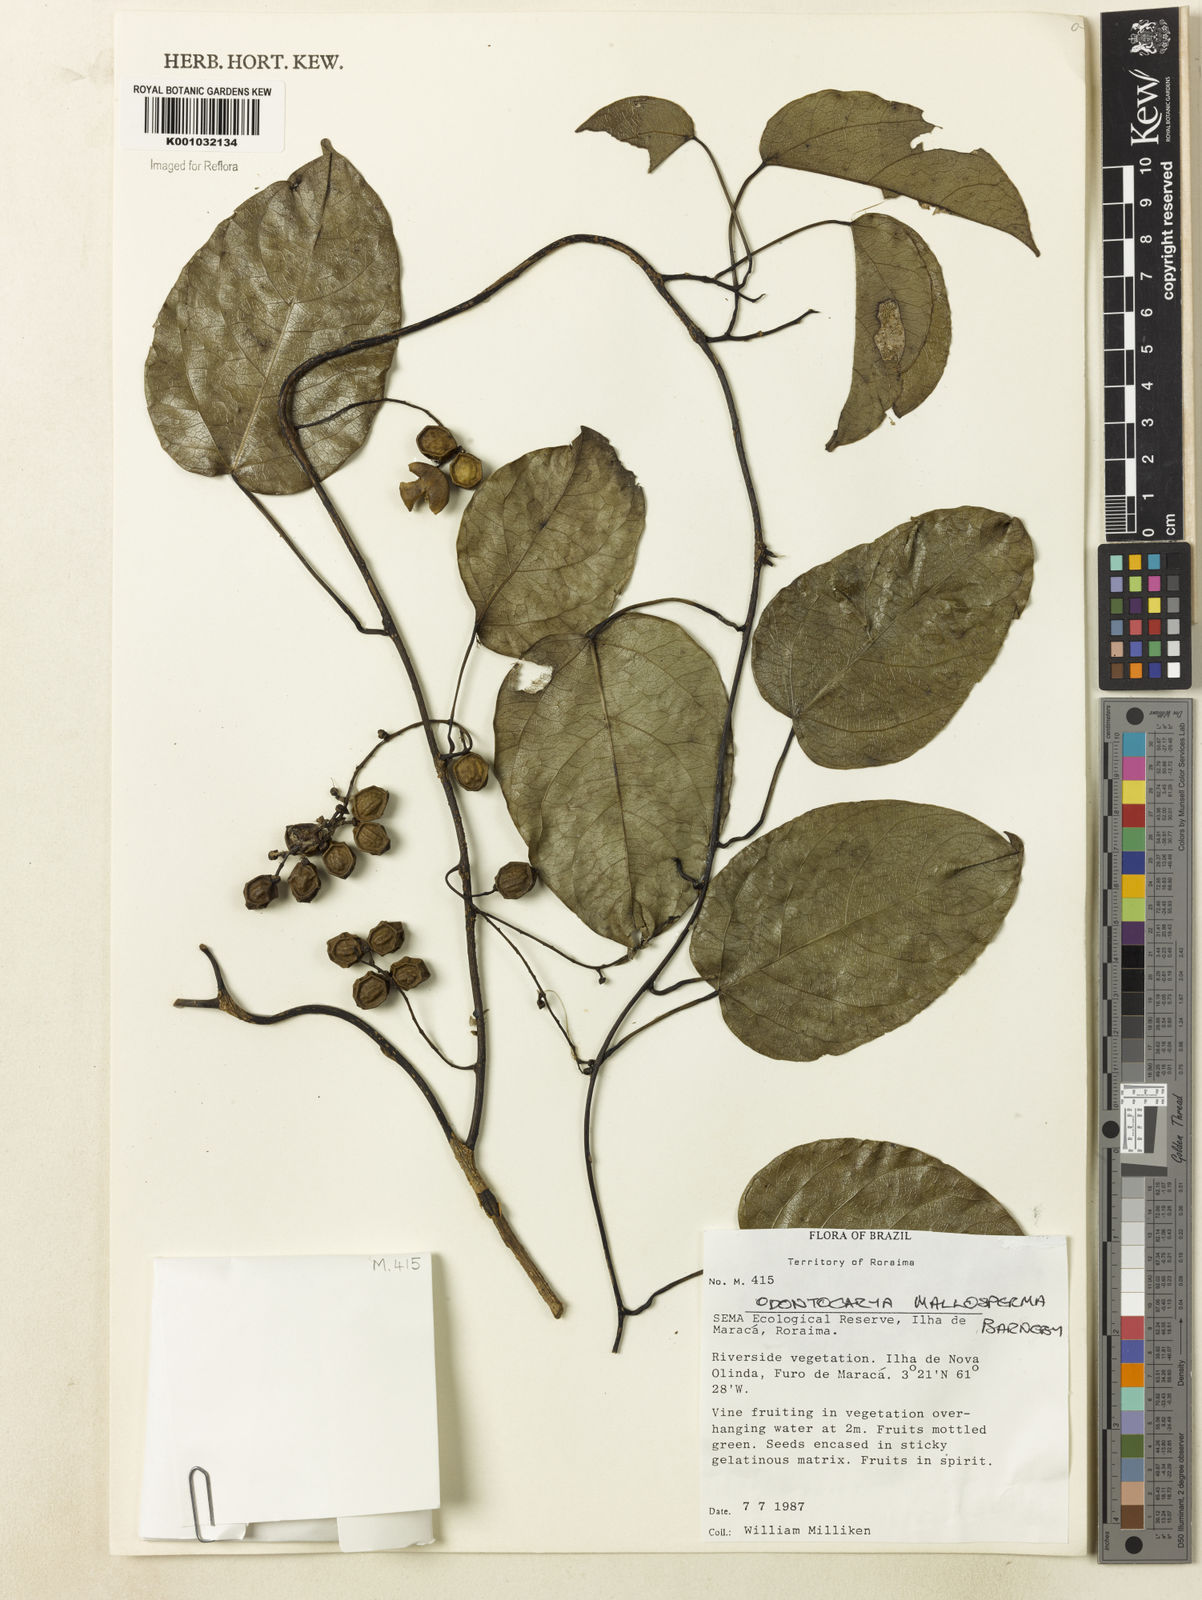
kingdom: Plantae
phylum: Tracheophyta
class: Magnoliopsida
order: Ranunculales
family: Menispermaceae
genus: Odontocarya
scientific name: Odontocarya mallosperma
